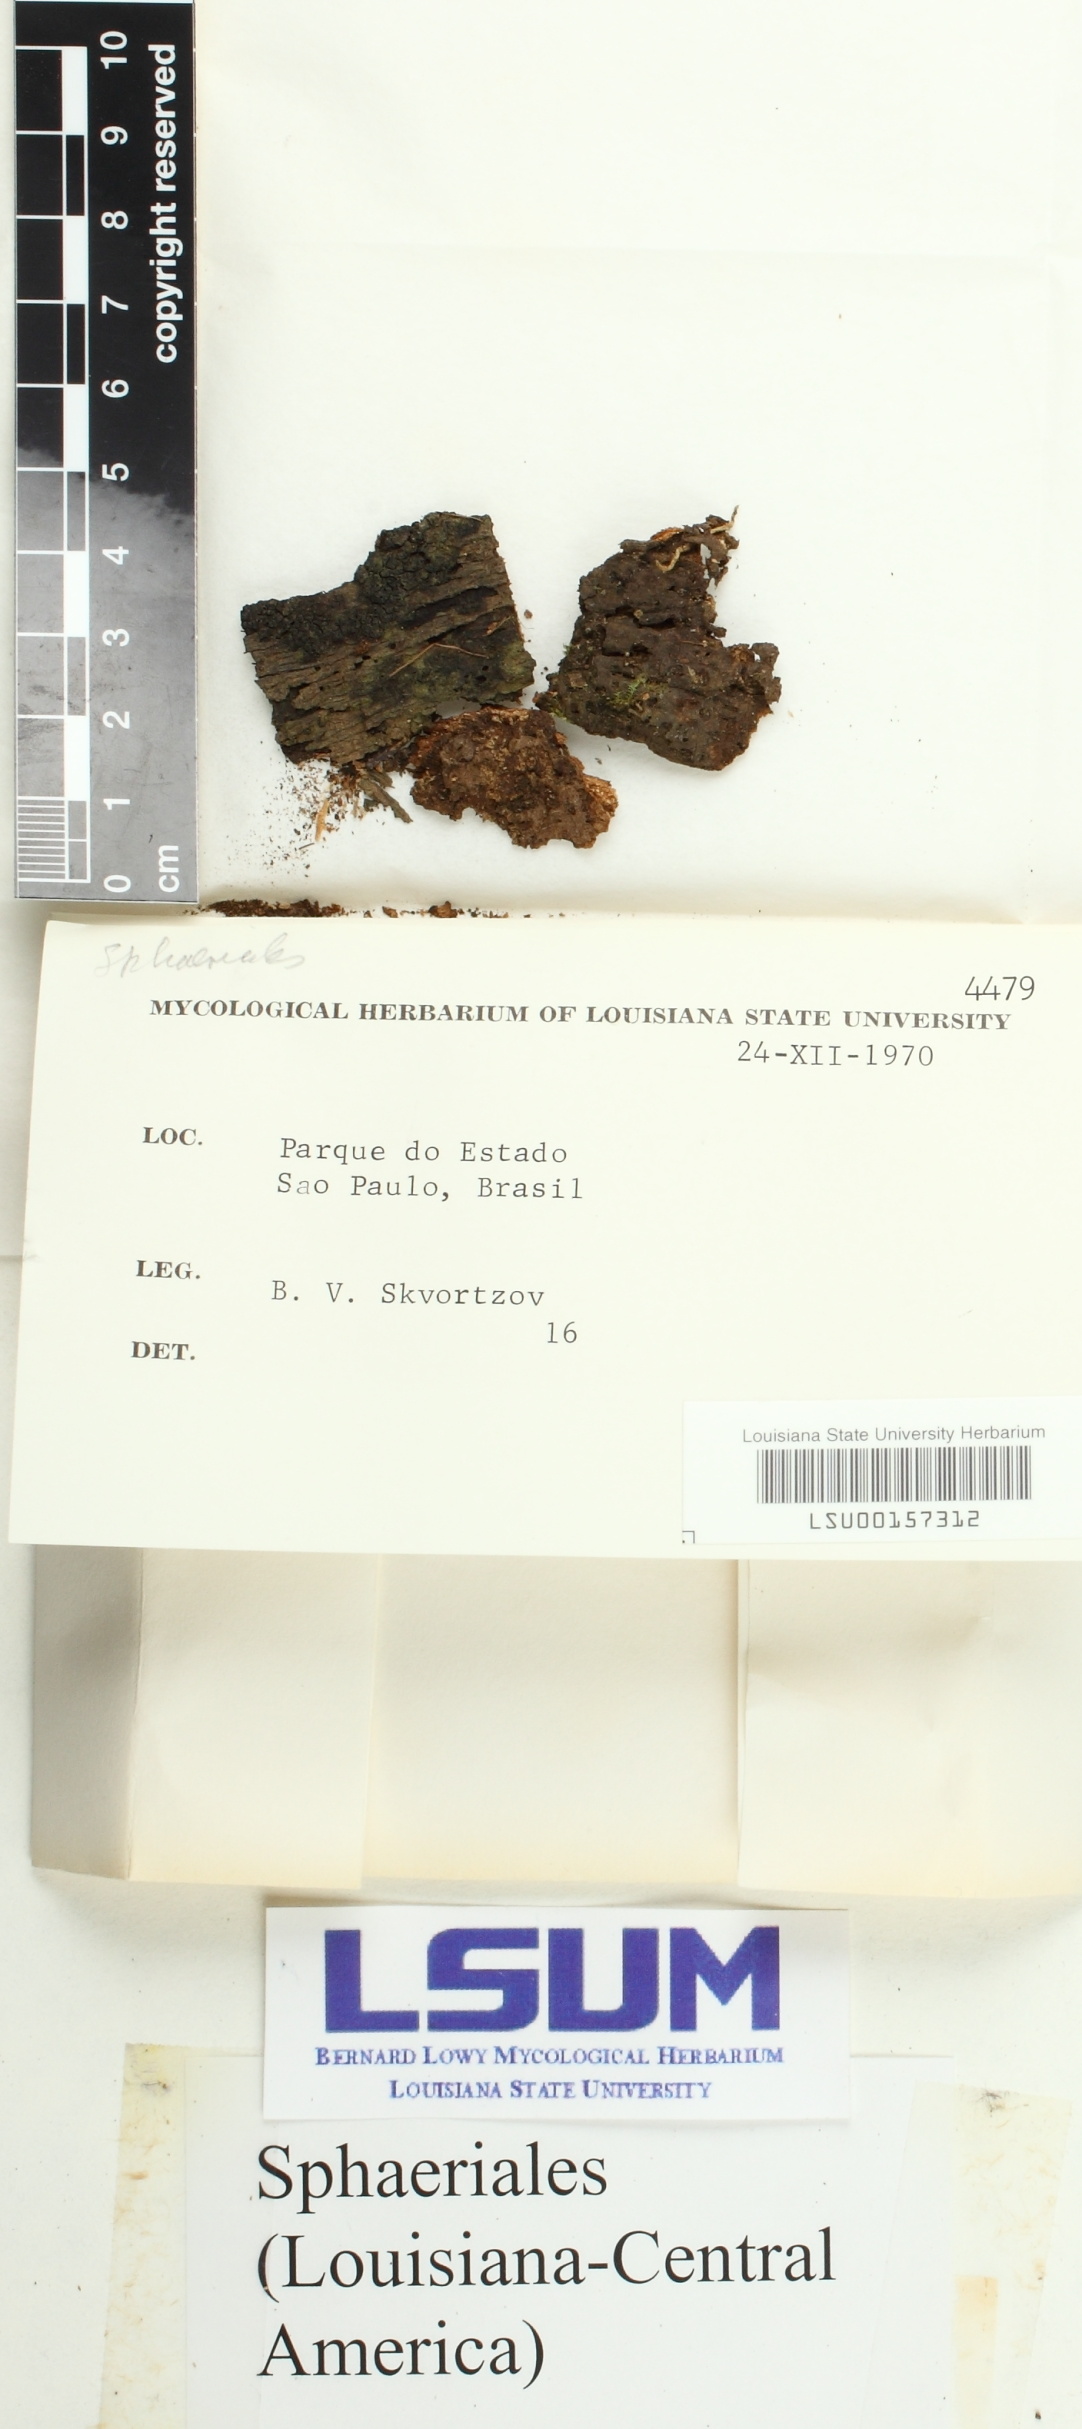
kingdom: Fungi
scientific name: Fungi
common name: Fungi
